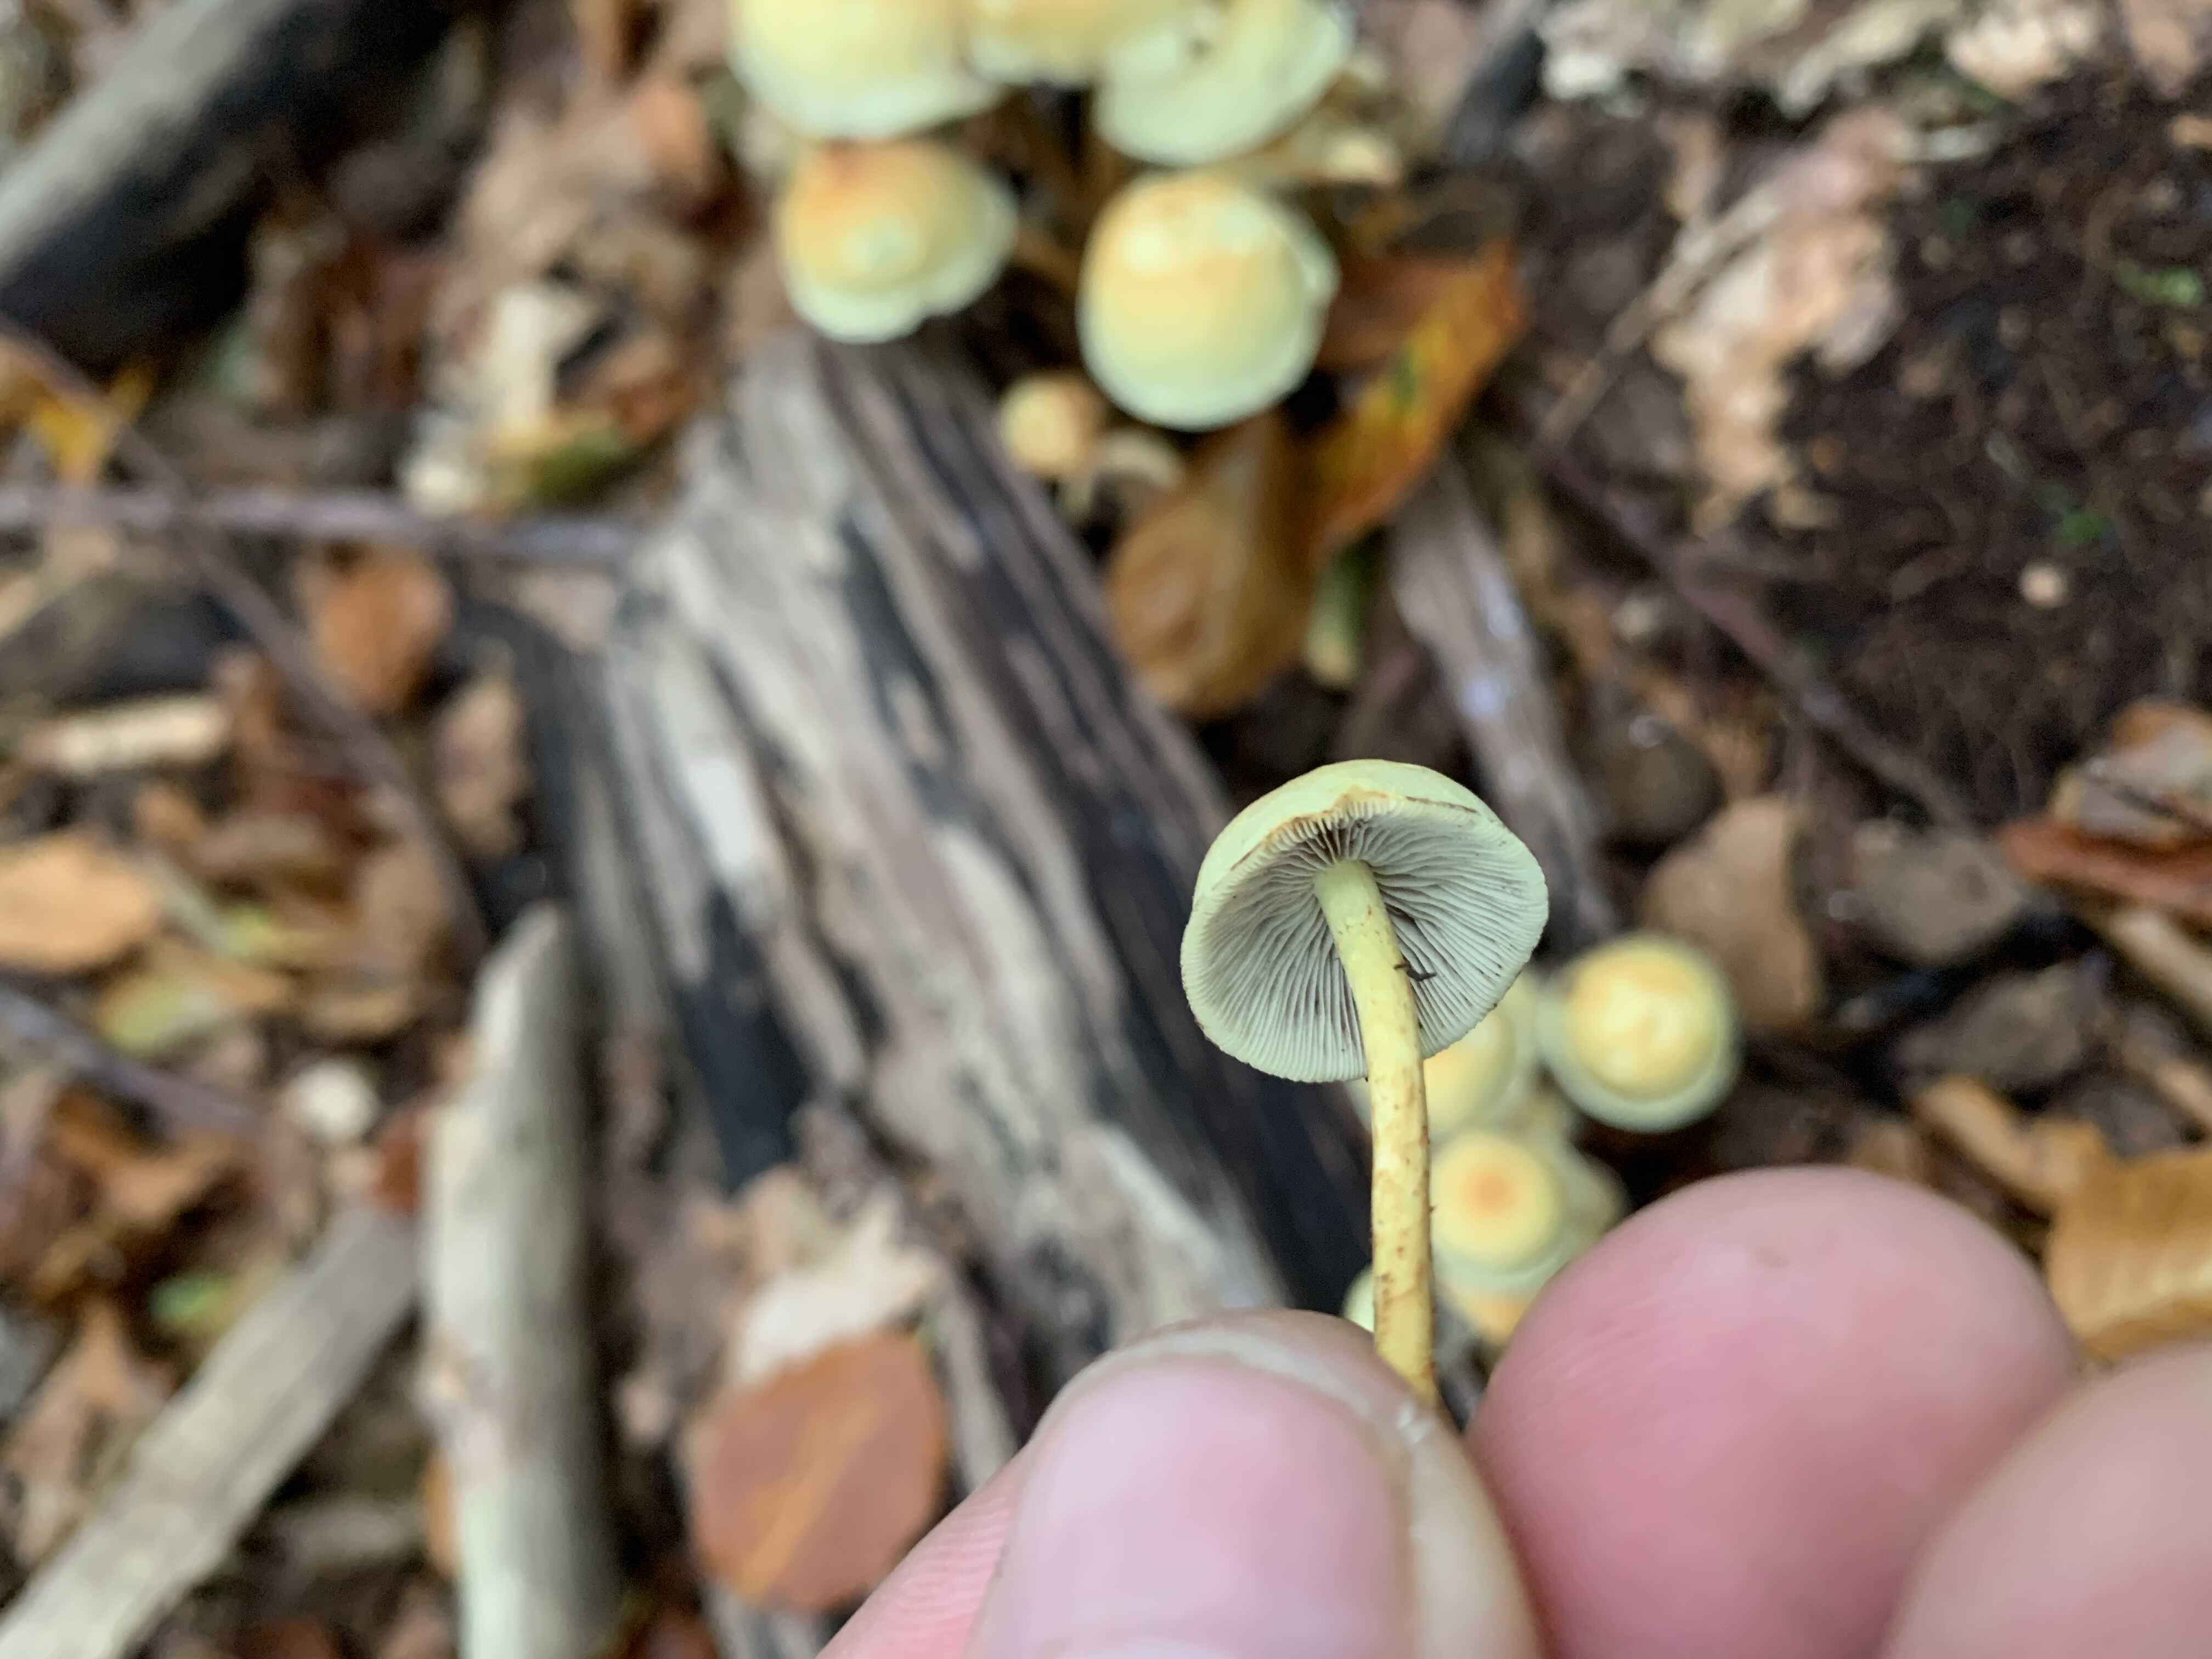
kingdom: Fungi
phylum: Basidiomycota
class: Agaricomycetes
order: Agaricales
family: Strophariaceae
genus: Hypholoma
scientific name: Hypholoma fasciculare
